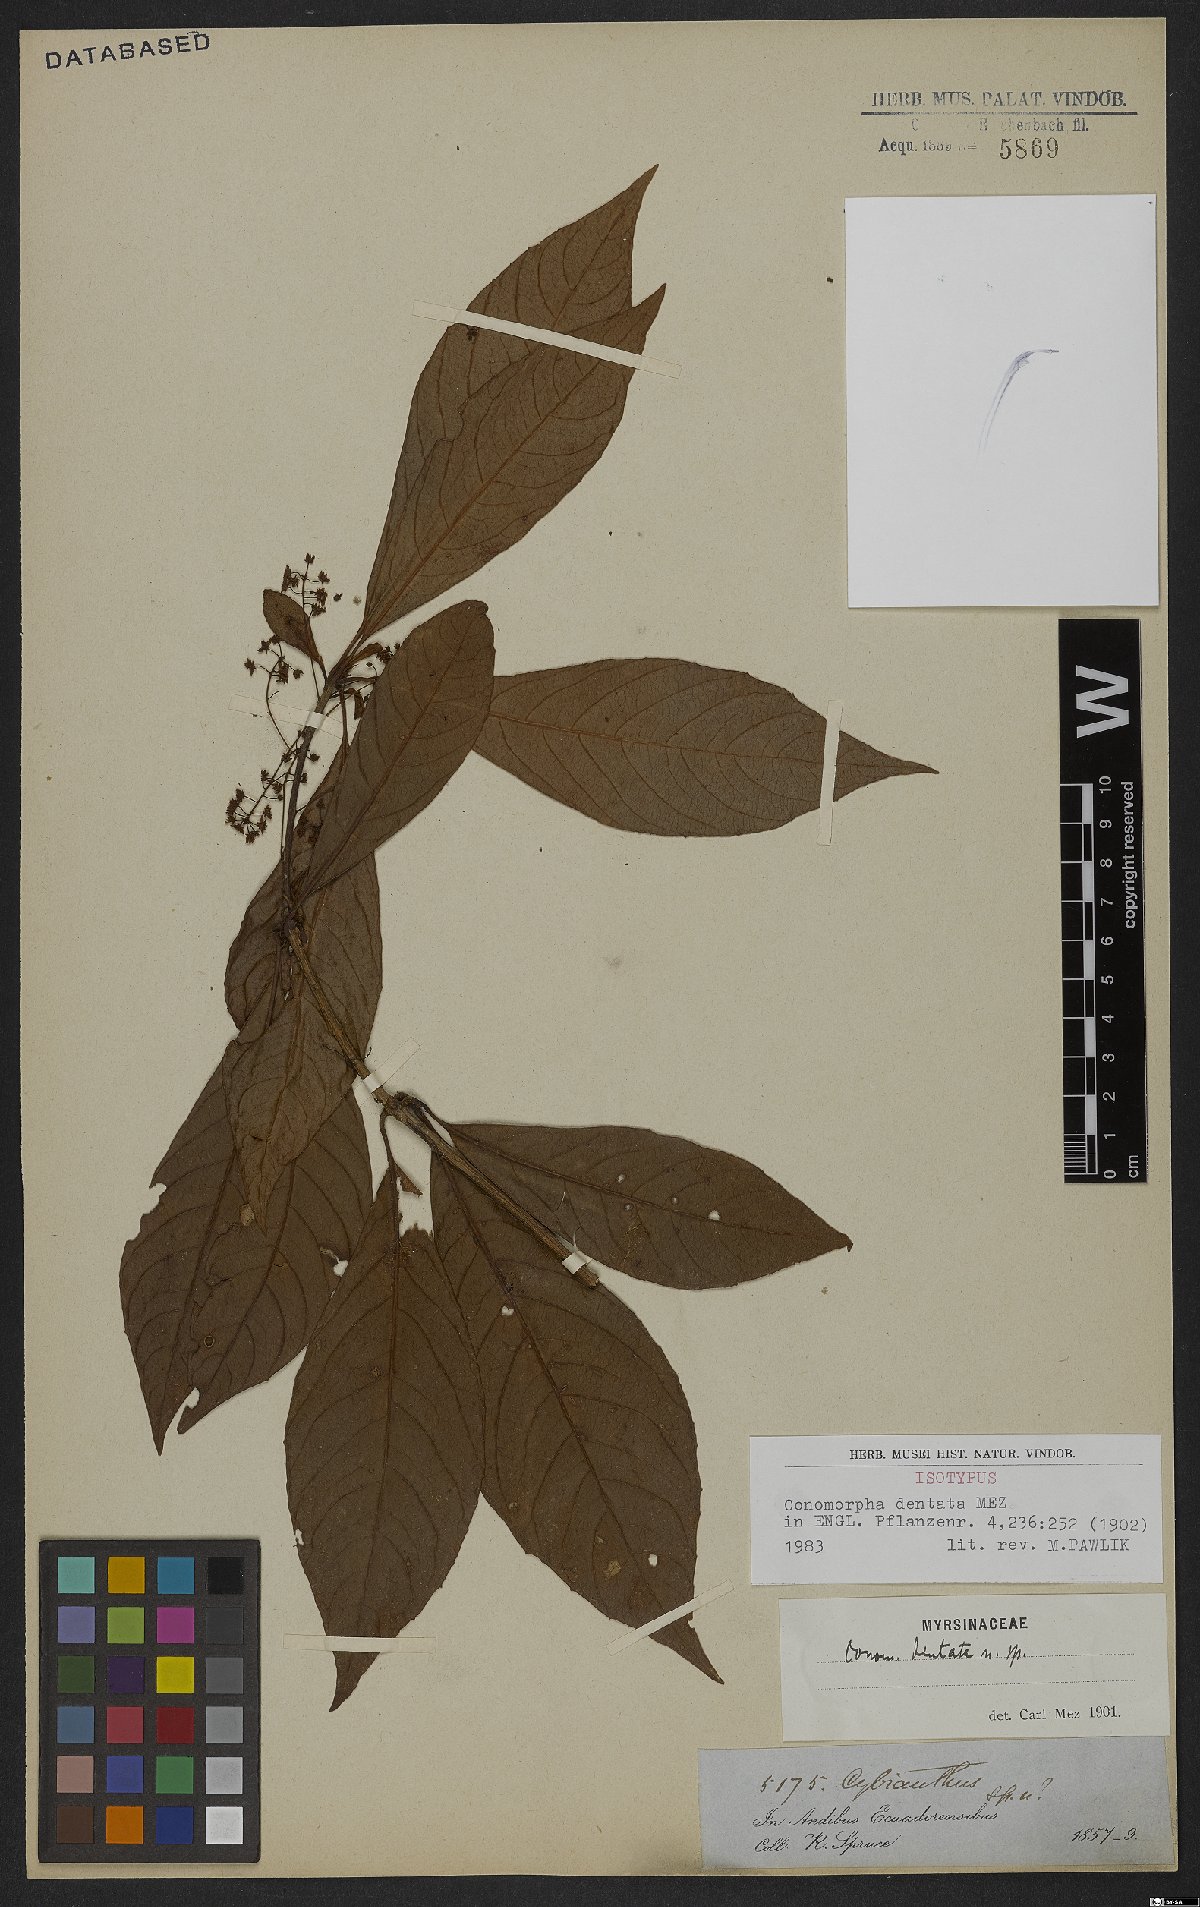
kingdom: Plantae
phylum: Tracheophyta
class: Magnoliopsida
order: Ericales
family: Primulaceae
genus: Cybianthus
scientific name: Cybianthus pastensis
